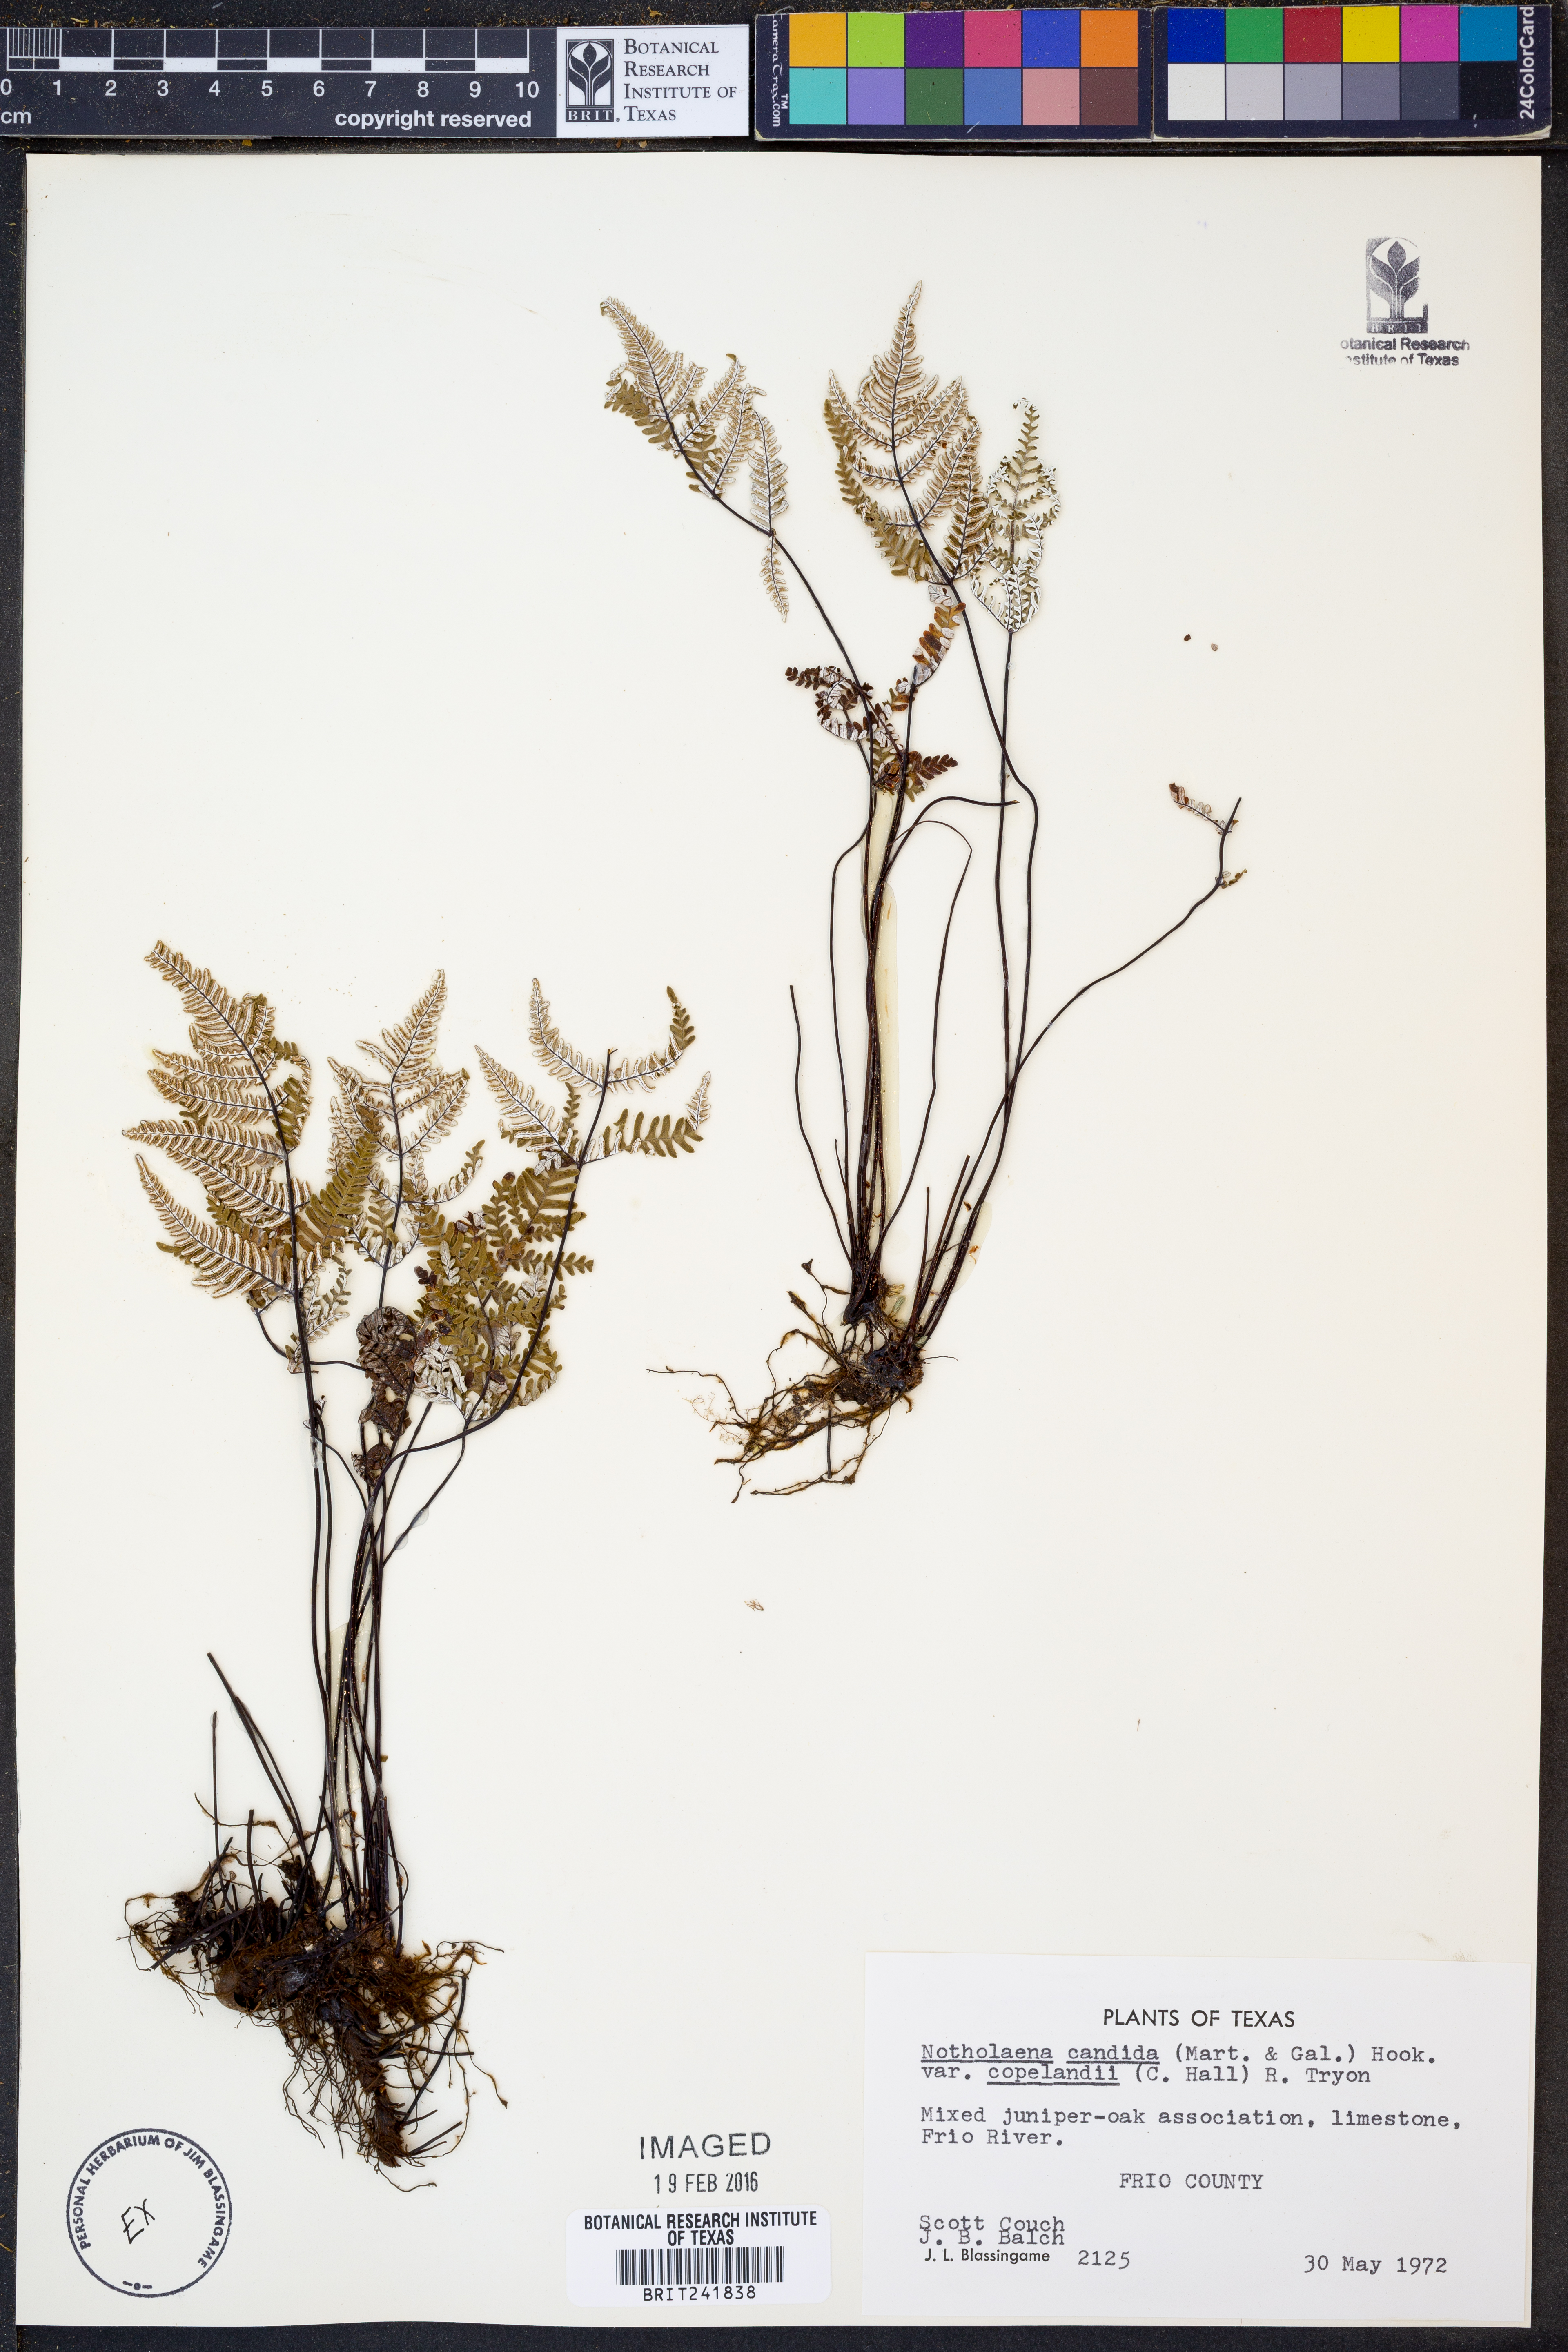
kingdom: Plantae
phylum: Tracheophyta
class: Polypodiopsida
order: Polypodiales
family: Pteridaceae
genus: Notholaena
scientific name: Notholaena candida
